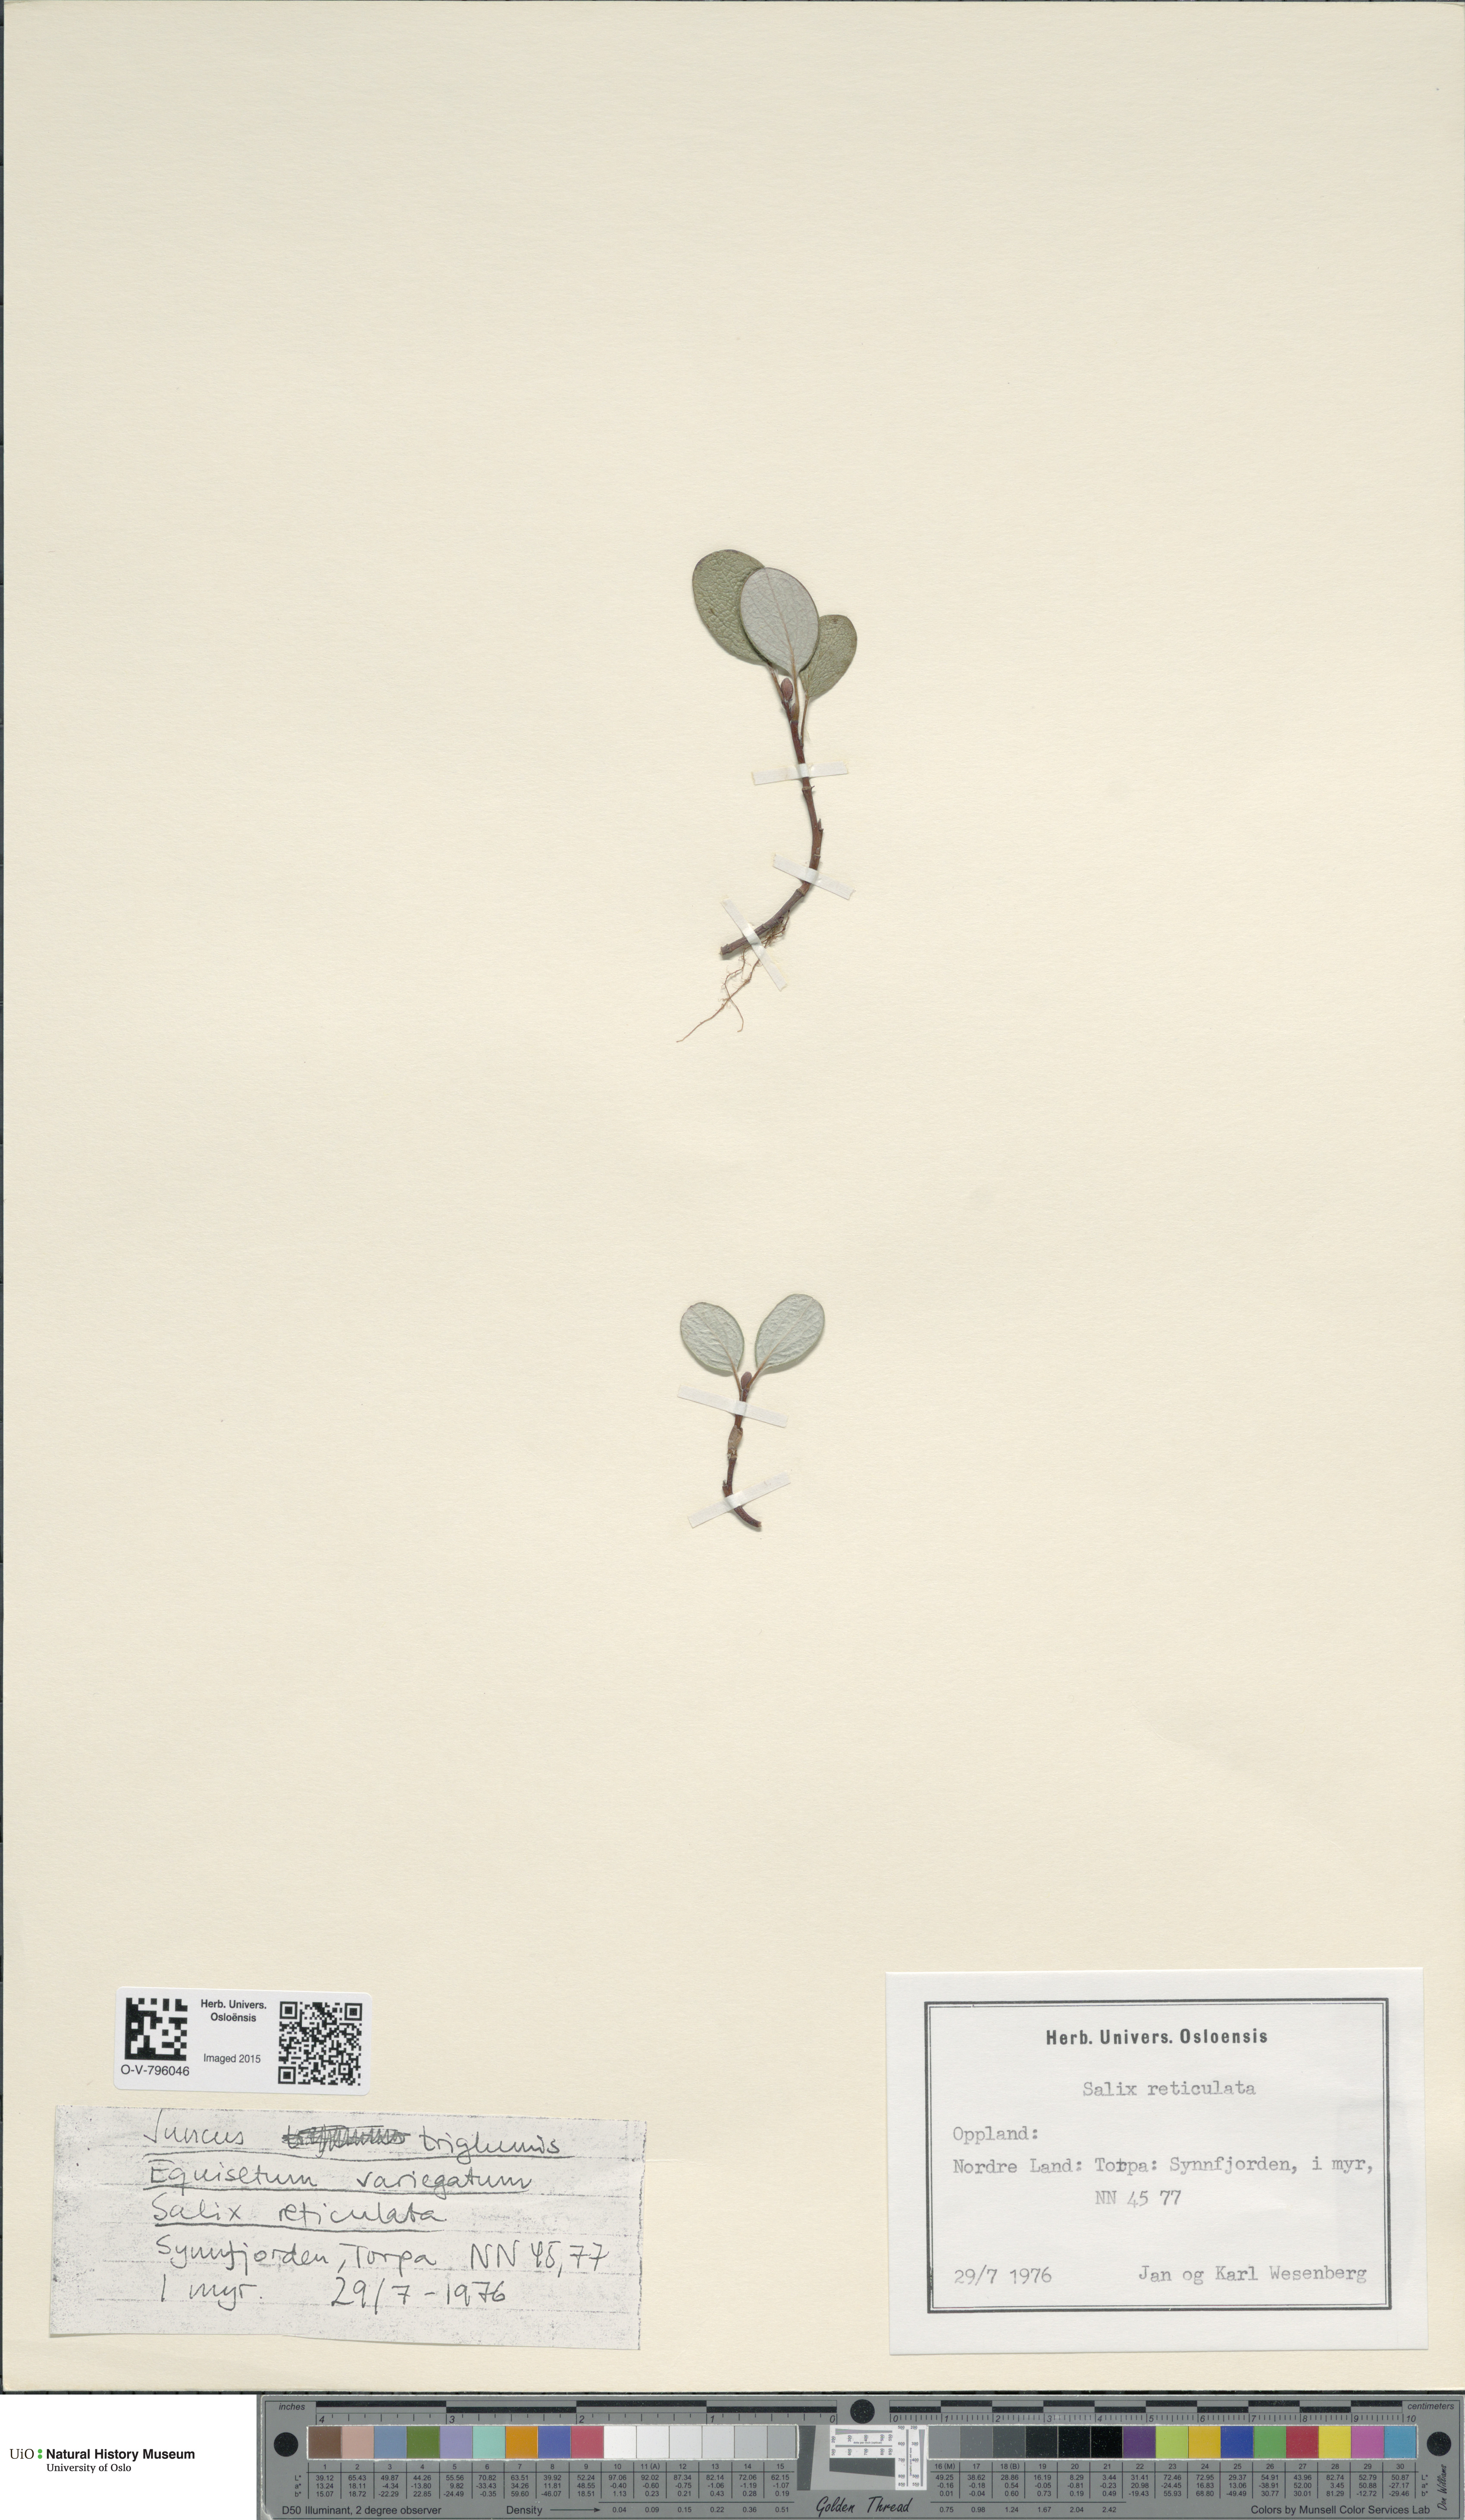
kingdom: Plantae
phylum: Tracheophyta
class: Magnoliopsida
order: Malpighiales
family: Salicaceae
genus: Salix
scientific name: Salix reticulata
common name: Net-leaved willow
